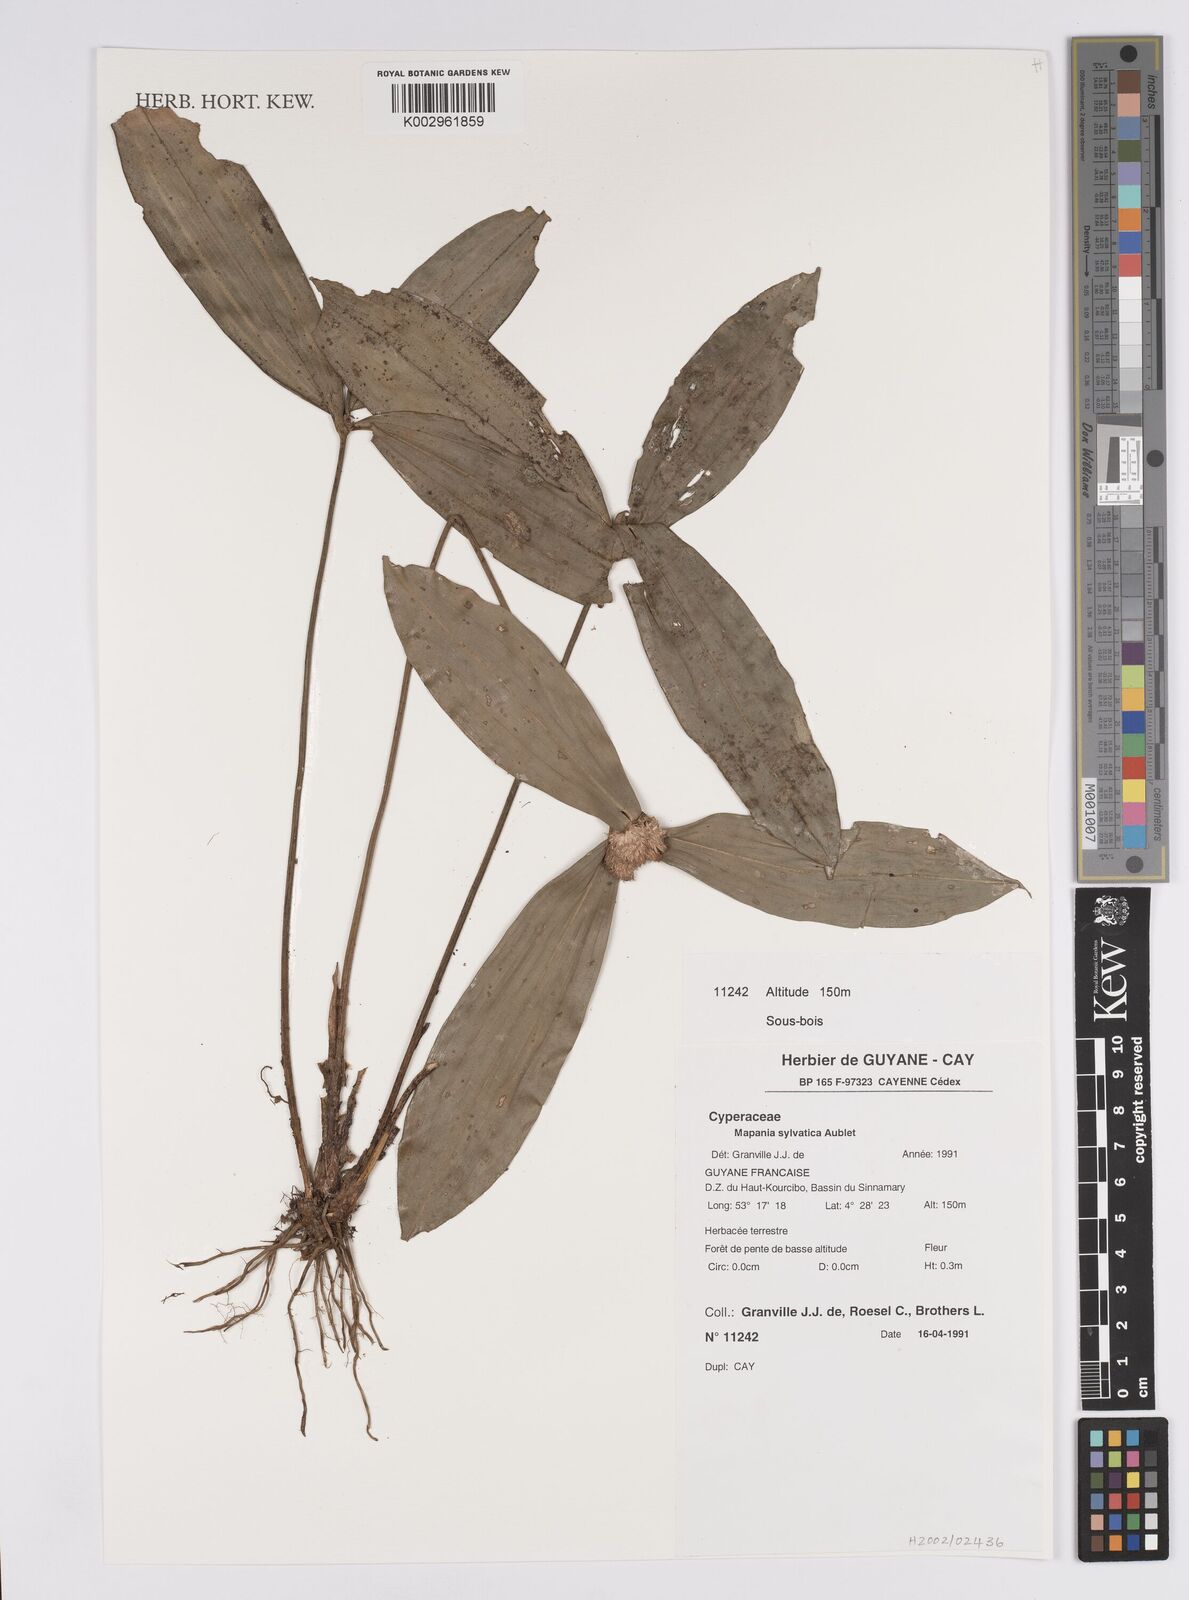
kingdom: Plantae
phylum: Tracheophyta
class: Liliopsida
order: Poales
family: Cyperaceae
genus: Mapania
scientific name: Mapania sylvatica
